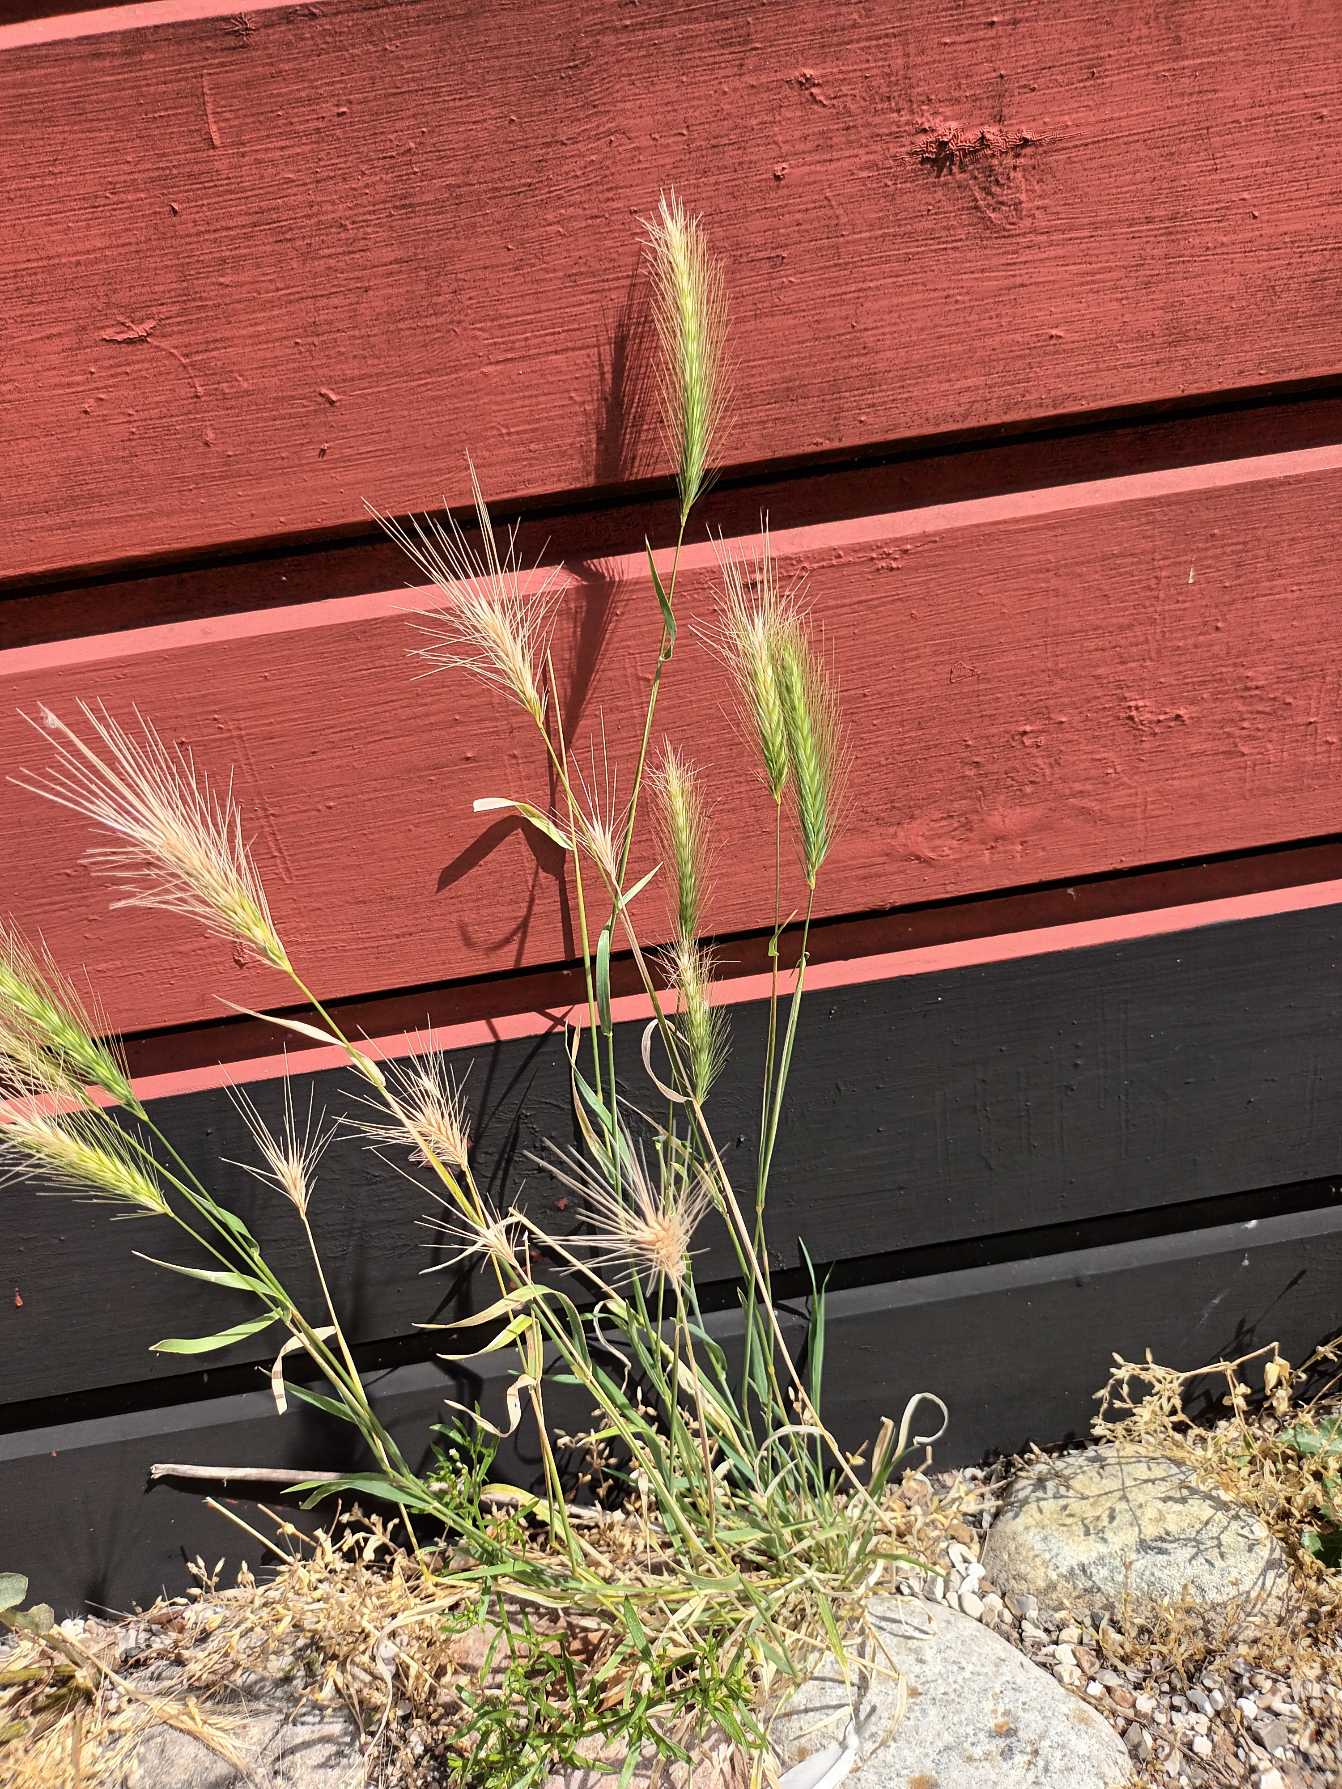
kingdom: Plantae
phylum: Tracheophyta
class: Liliopsida
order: Poales
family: Poaceae
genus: Hordeum
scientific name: Hordeum murinum
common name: Gold byg
